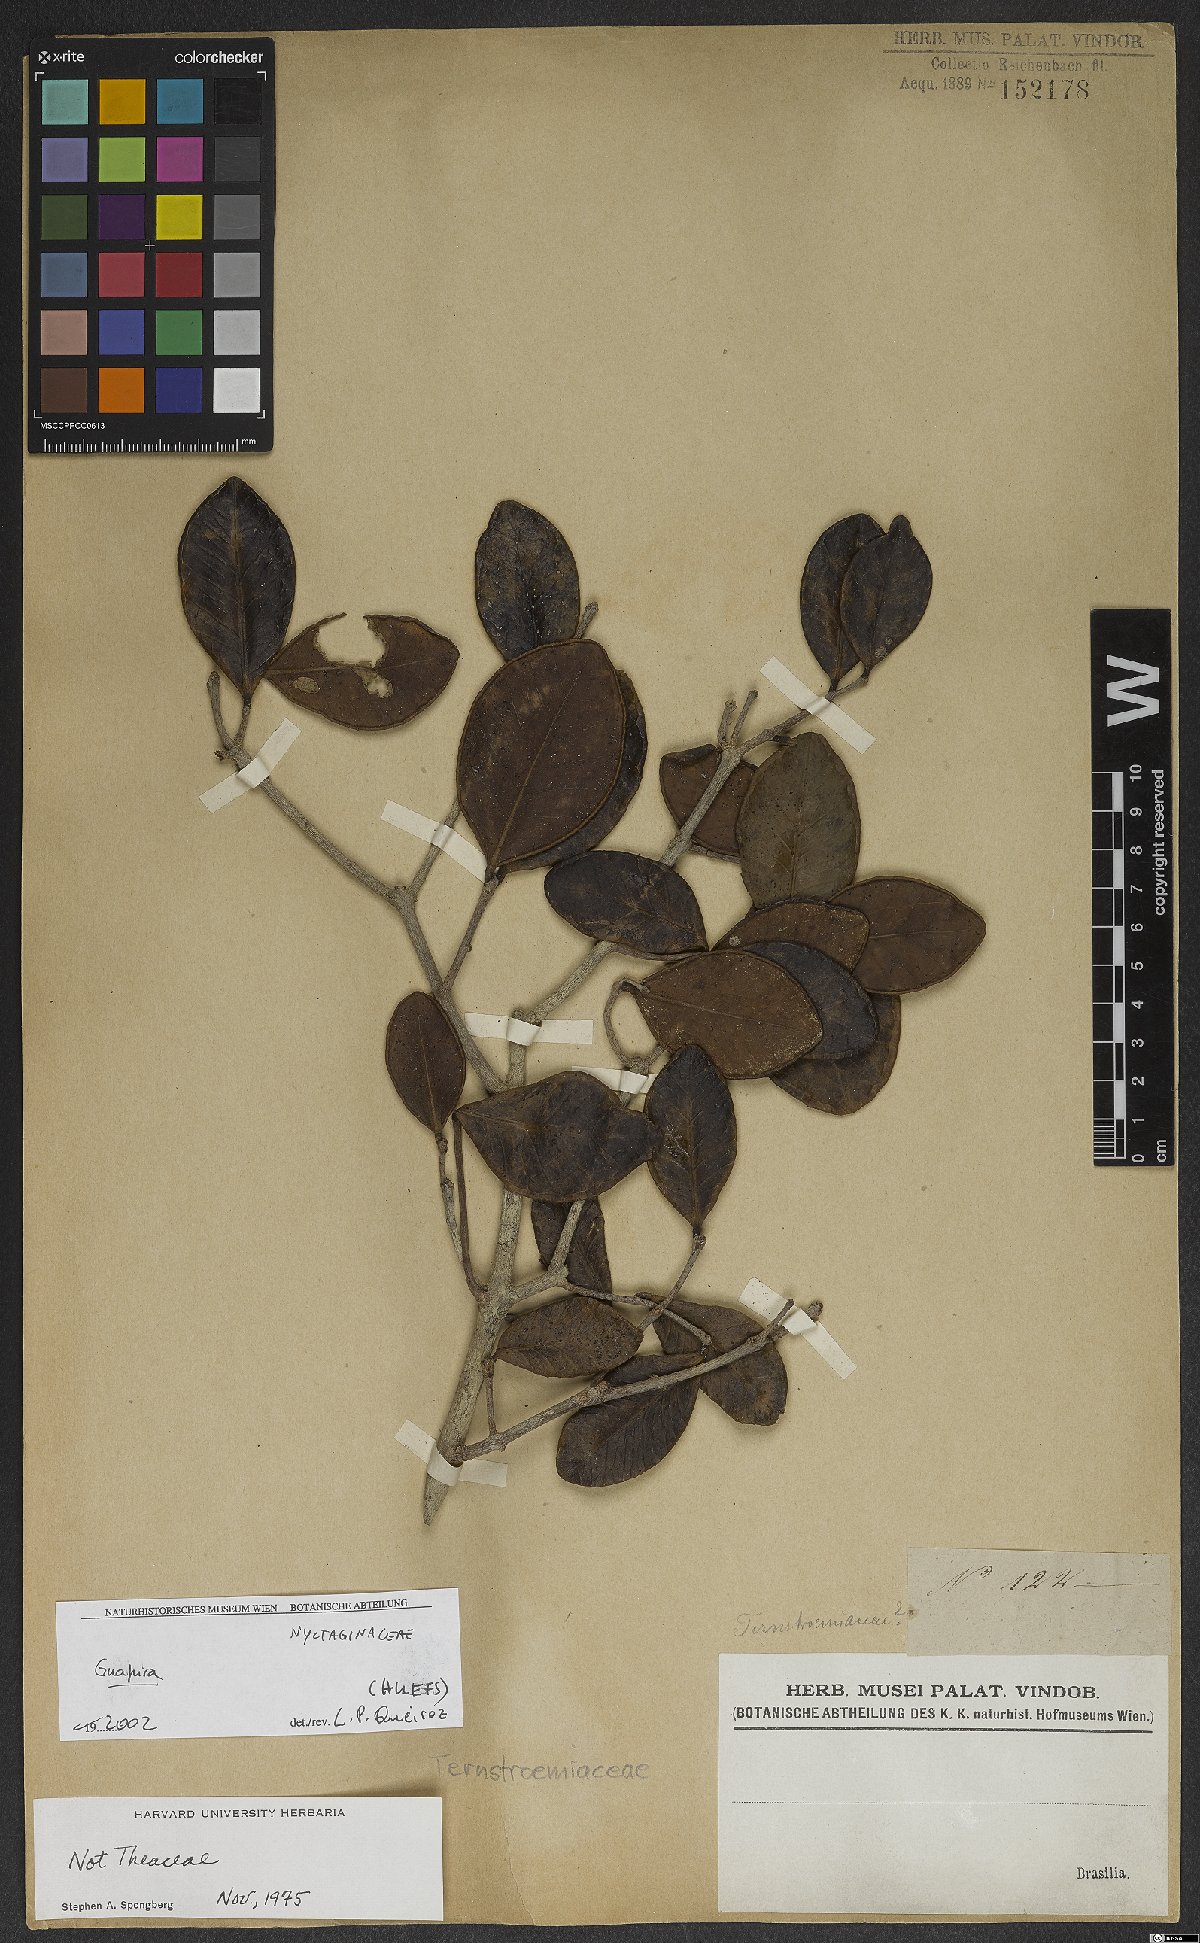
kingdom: Plantae
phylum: Tracheophyta
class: Magnoliopsida
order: Caryophyllales
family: Nyctaginaceae
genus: Guapira
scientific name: Guapira
